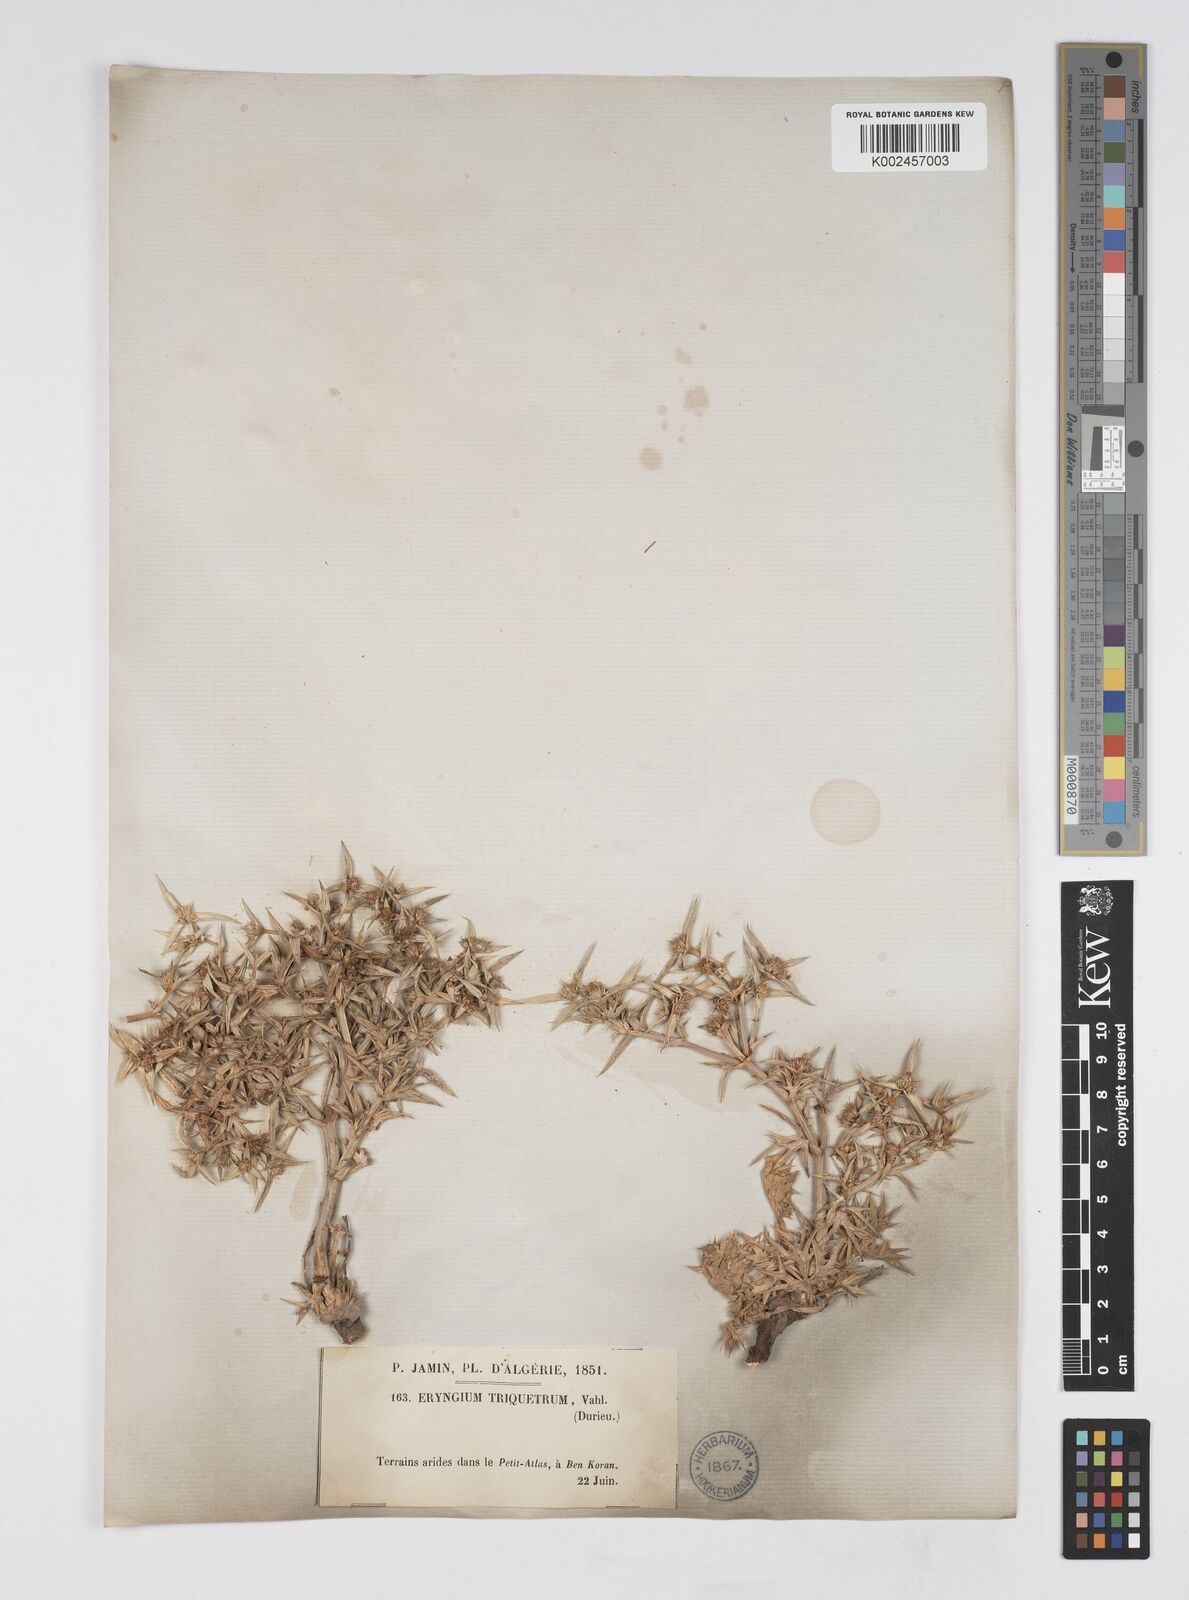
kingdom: Plantae
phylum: Tracheophyta
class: Magnoliopsida
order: Apiales
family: Apiaceae
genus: Eryngium
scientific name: Eryngium triquetrum
